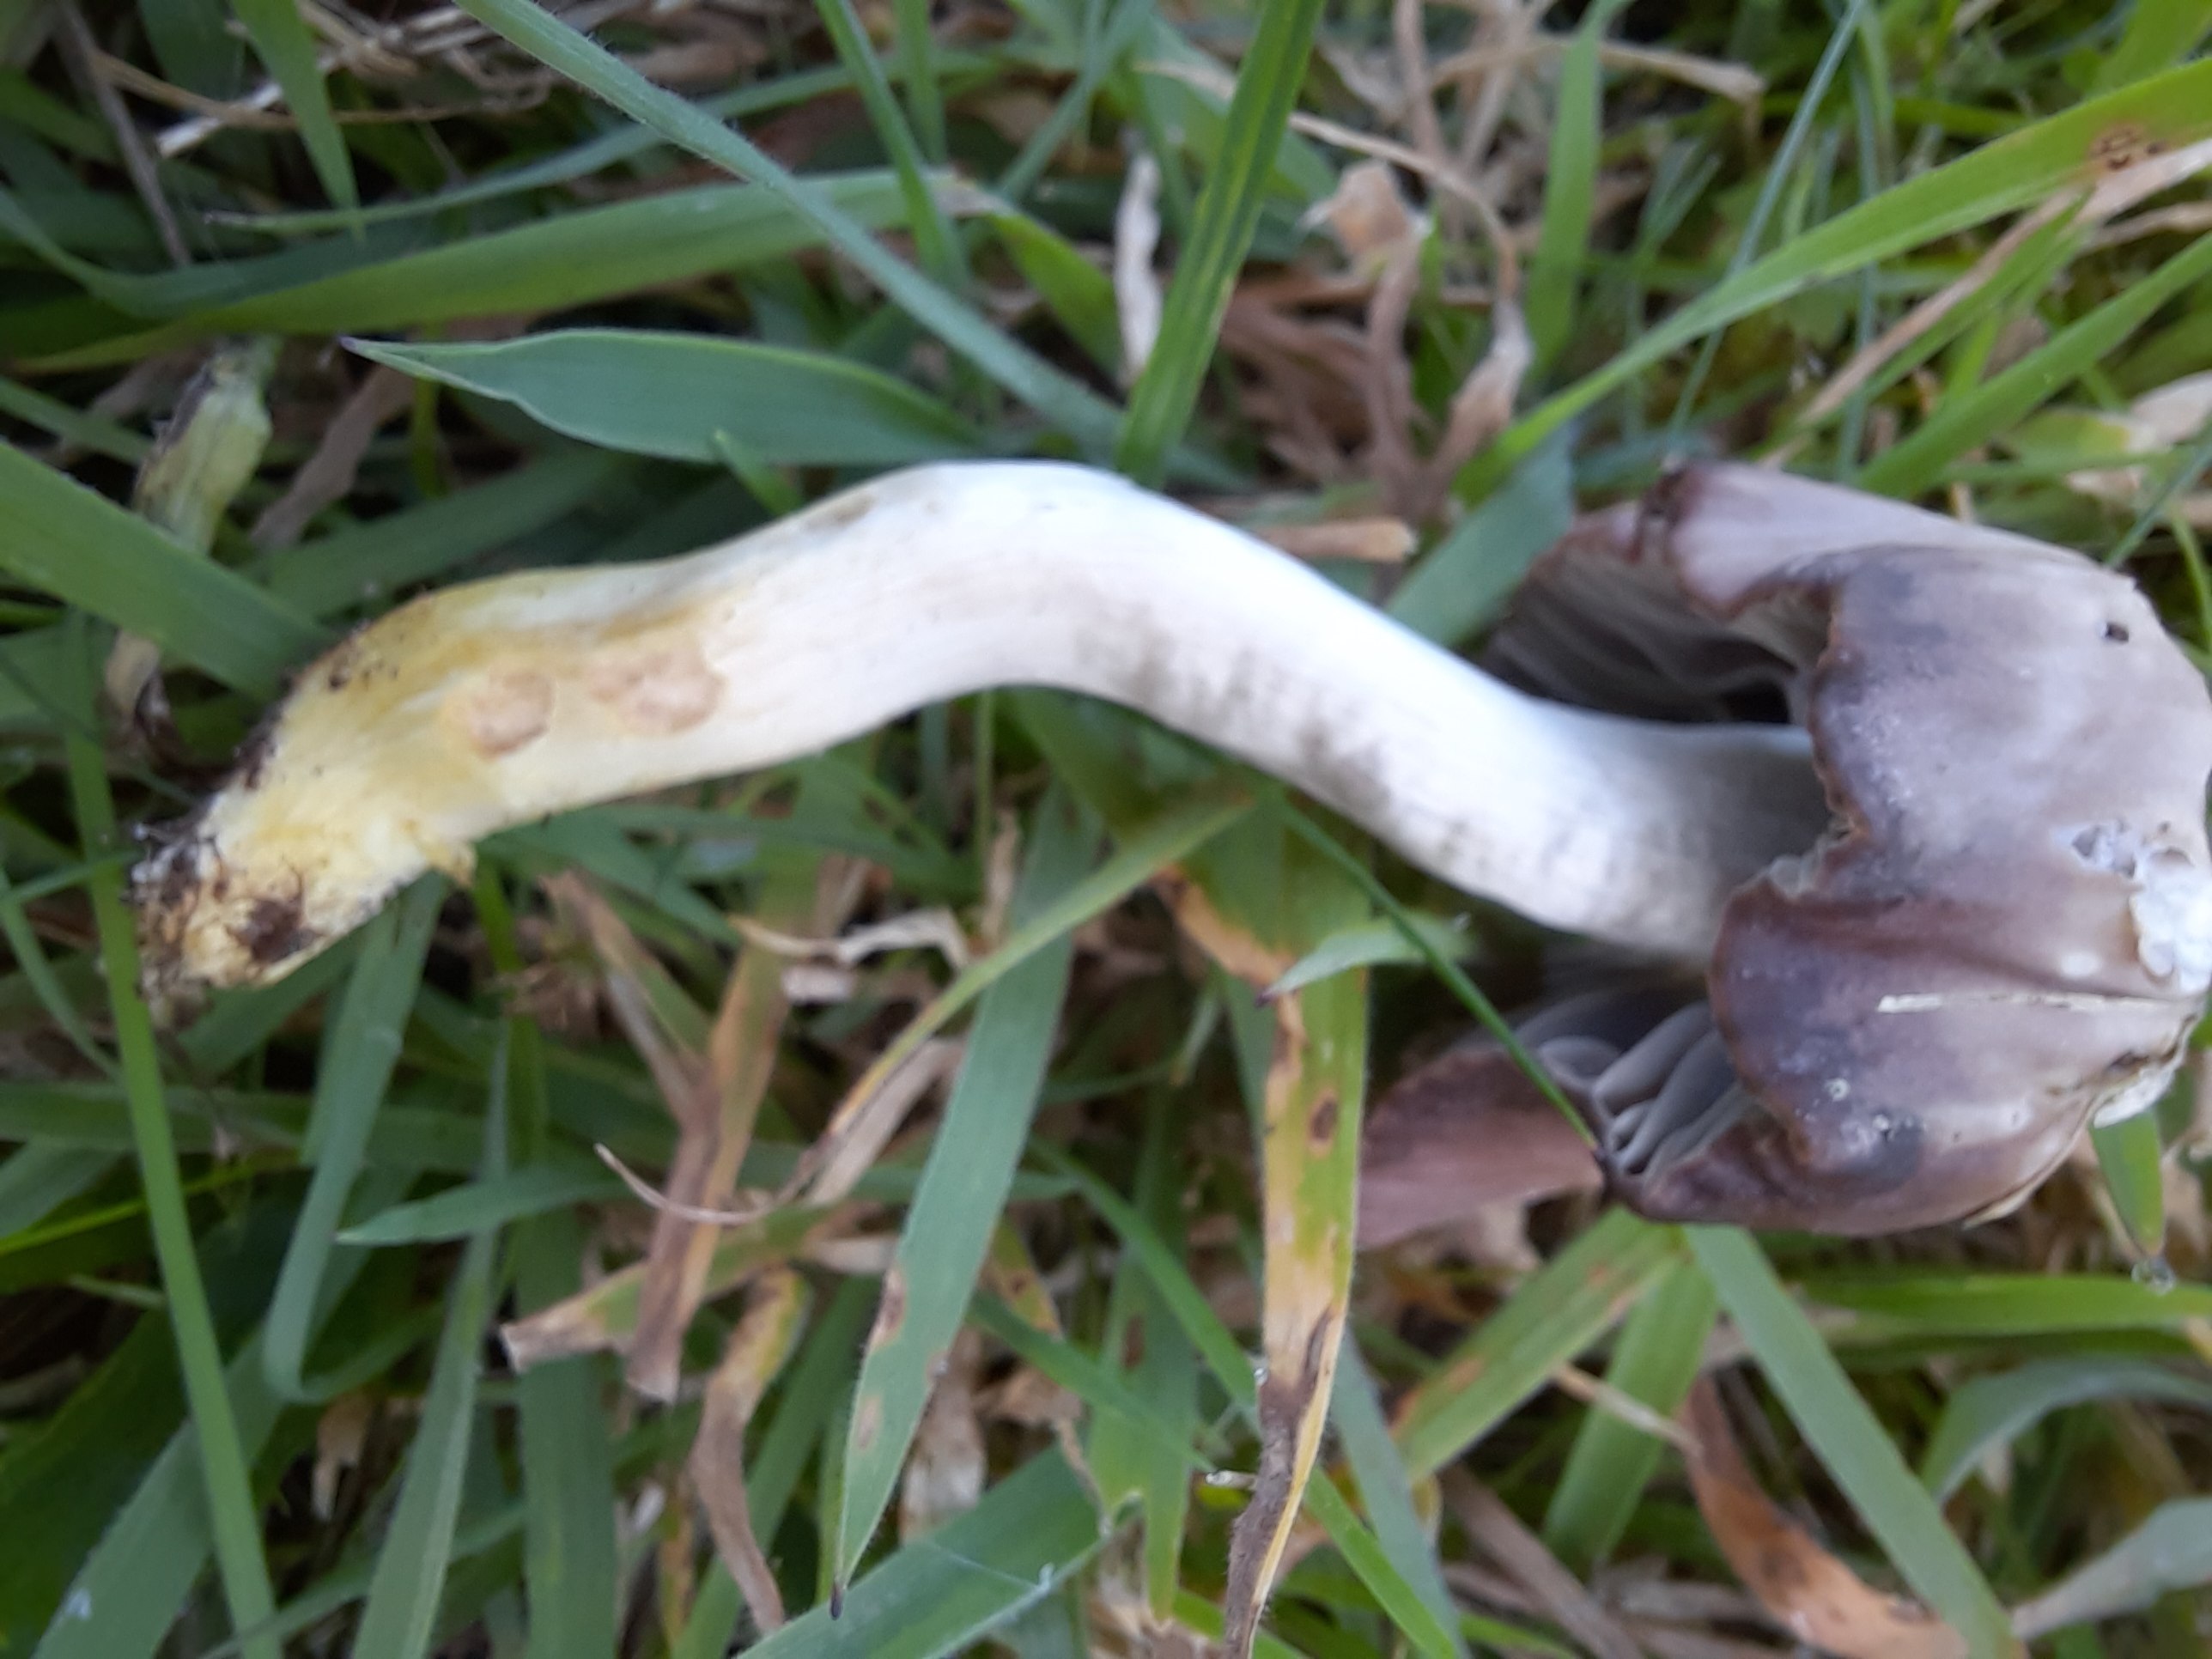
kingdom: Fungi
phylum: Basidiomycota
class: Agaricomycetes
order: Agaricales
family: Hygrophoraceae
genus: Cuphophyllus
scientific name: Cuphophyllus flavipes
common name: gulfodet vokshat
